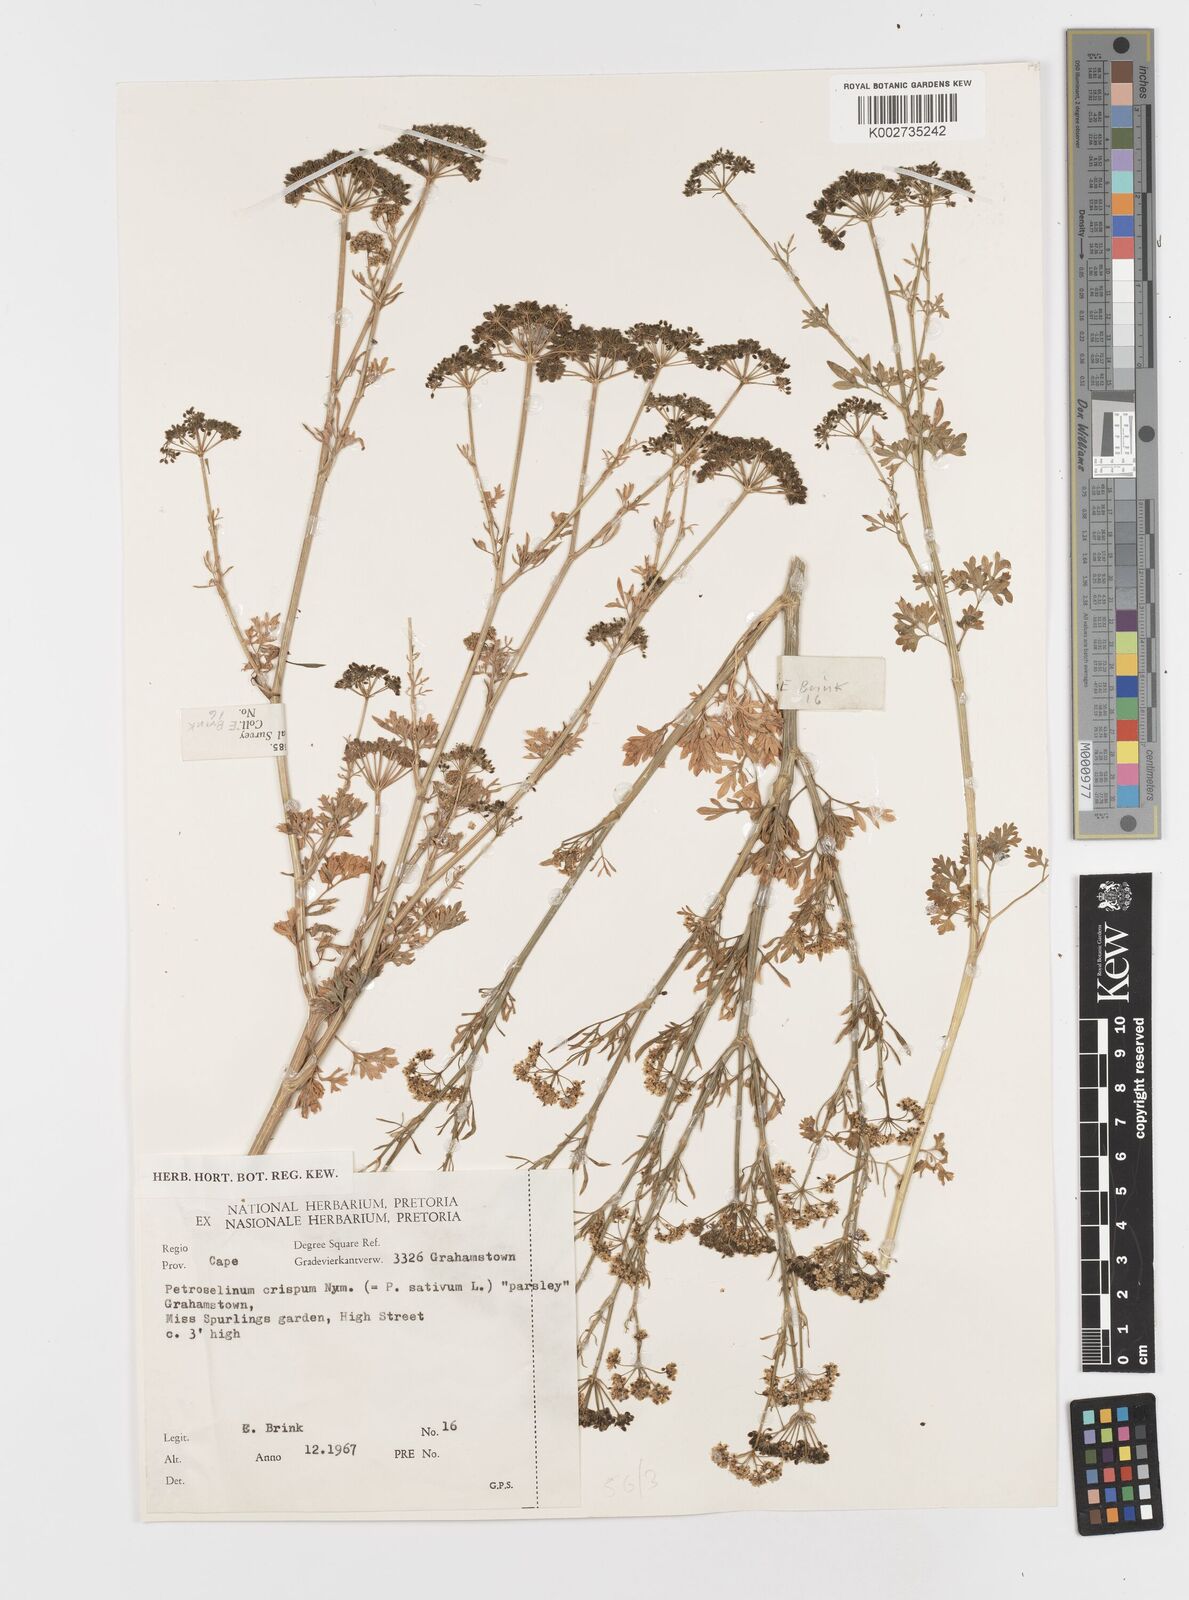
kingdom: Plantae
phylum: Tracheophyta
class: Magnoliopsida
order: Apiales
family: Apiaceae
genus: Petroselinum
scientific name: Petroselinum crispum
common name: Parsley
